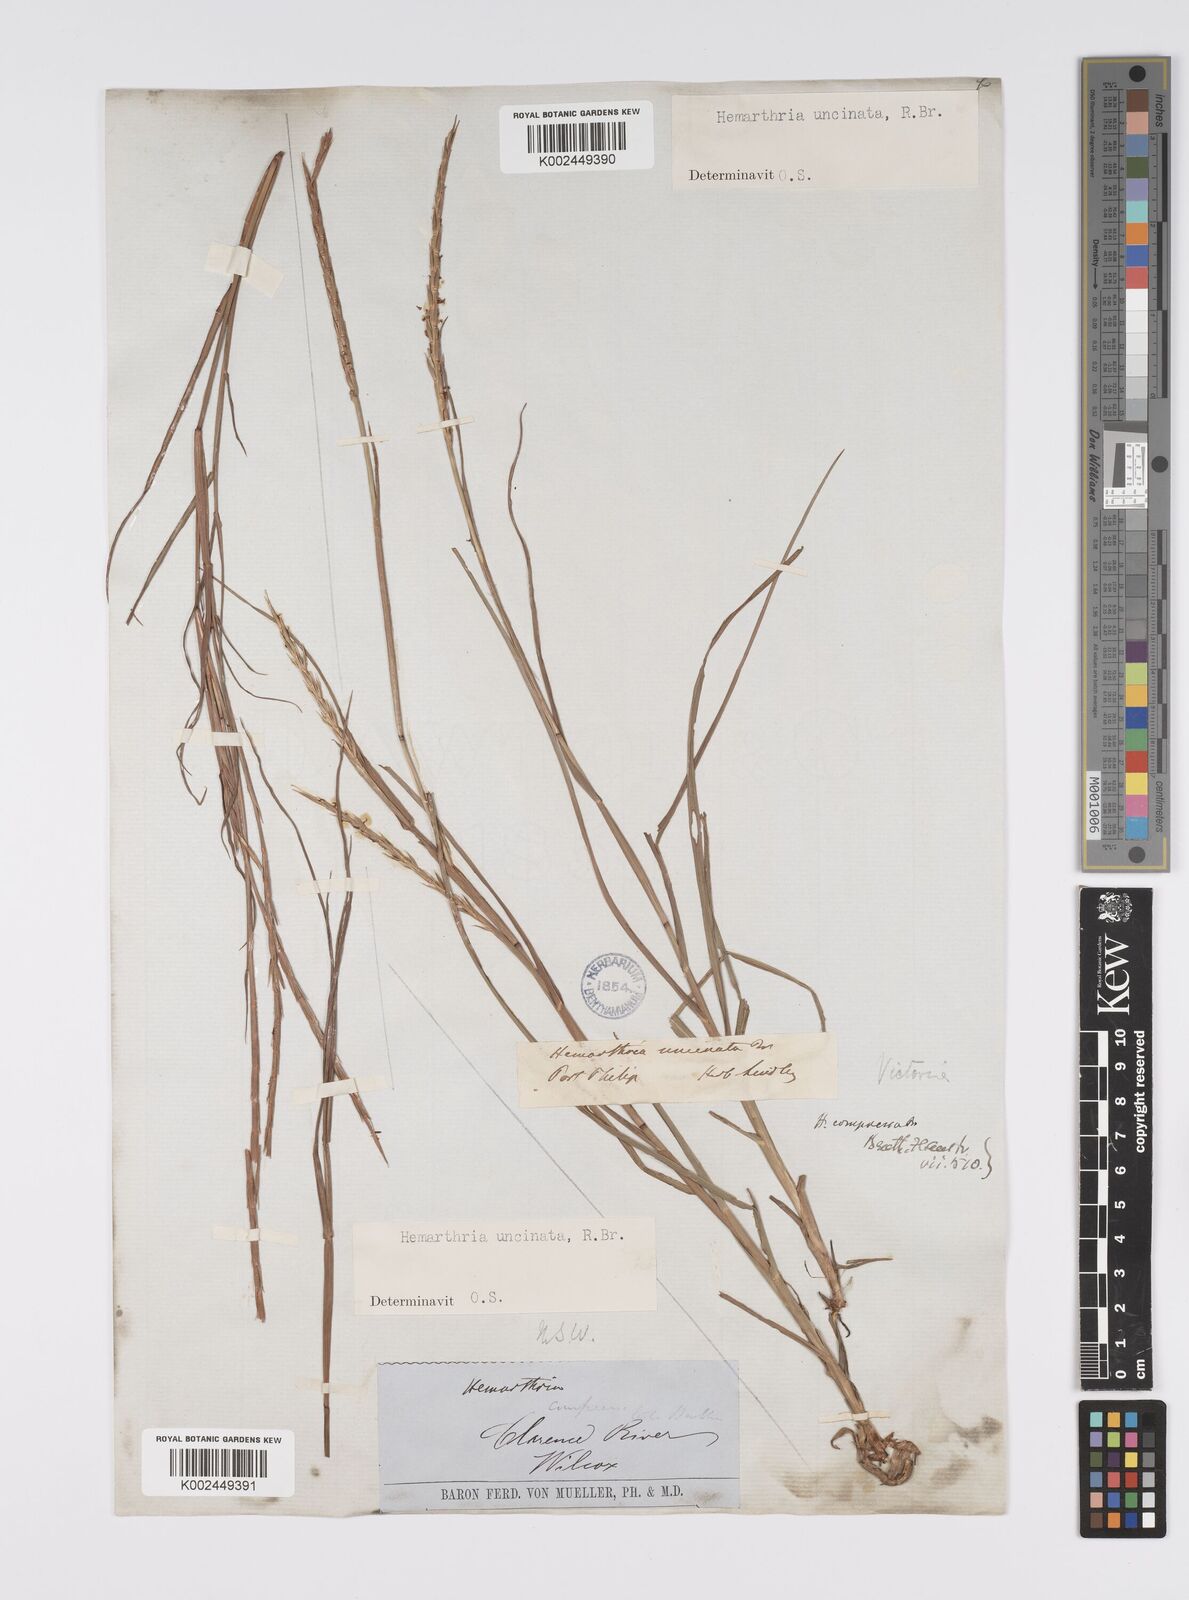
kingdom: Plantae
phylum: Tracheophyta
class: Liliopsida
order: Poales
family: Poaceae
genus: Hemarthria
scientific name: Hemarthria uncinata
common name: Matgrass
